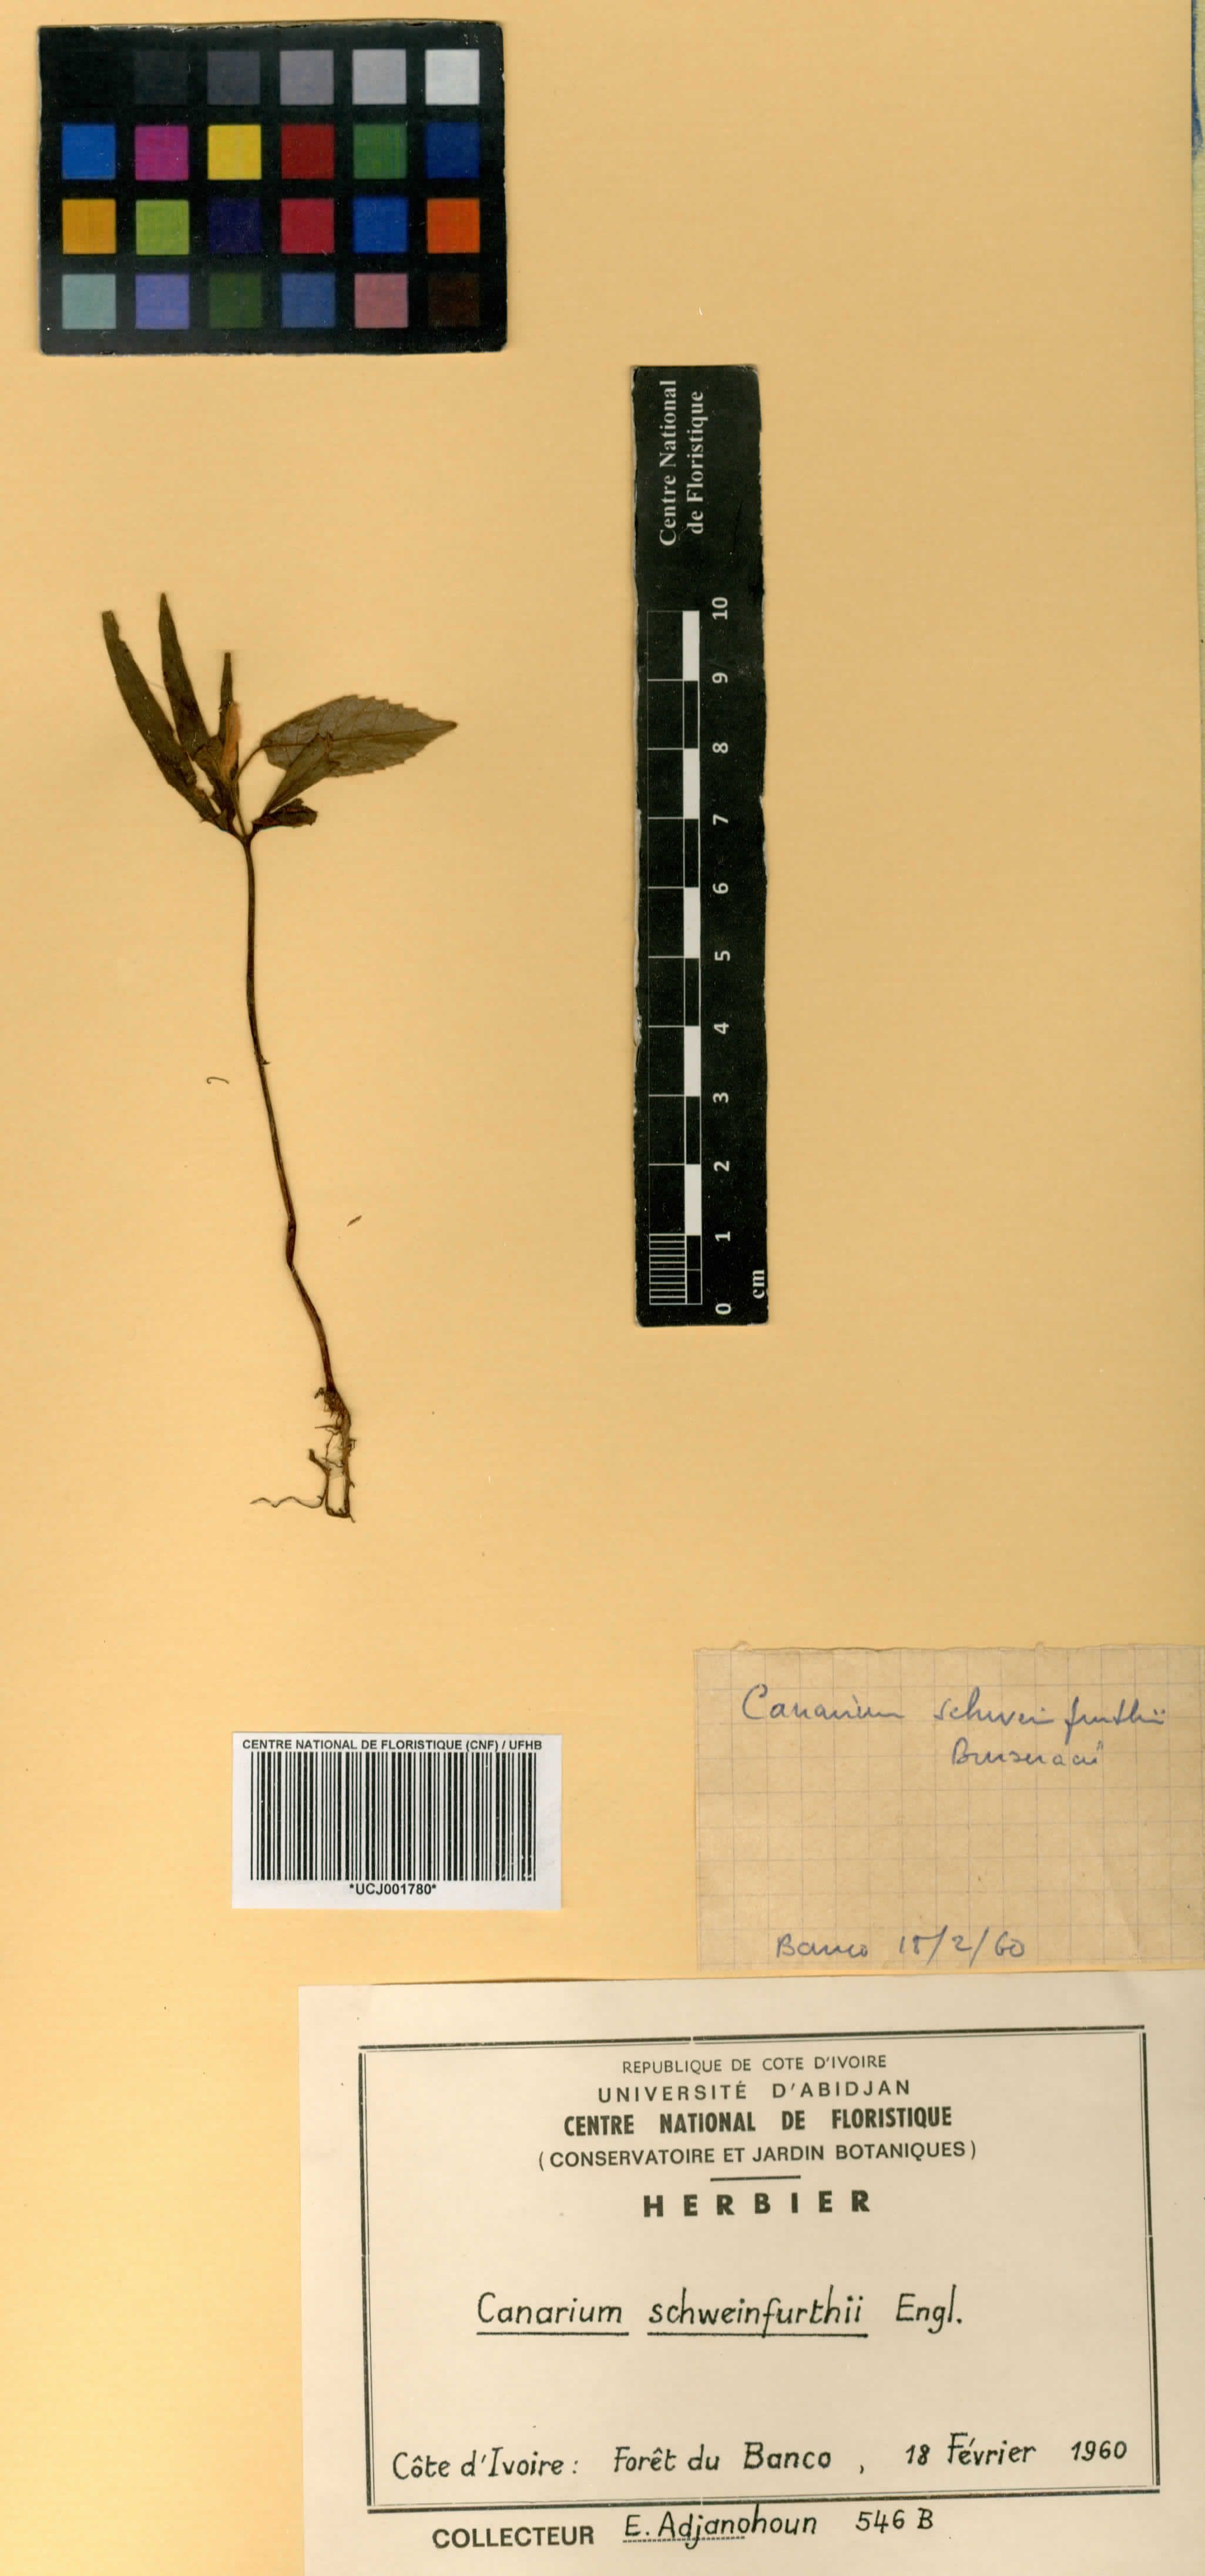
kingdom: Plantae
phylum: Tracheophyta
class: Magnoliopsida
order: Sapindales
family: Burseraceae
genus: Canarium
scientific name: Canarium schweinfurthii
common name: African elemi
